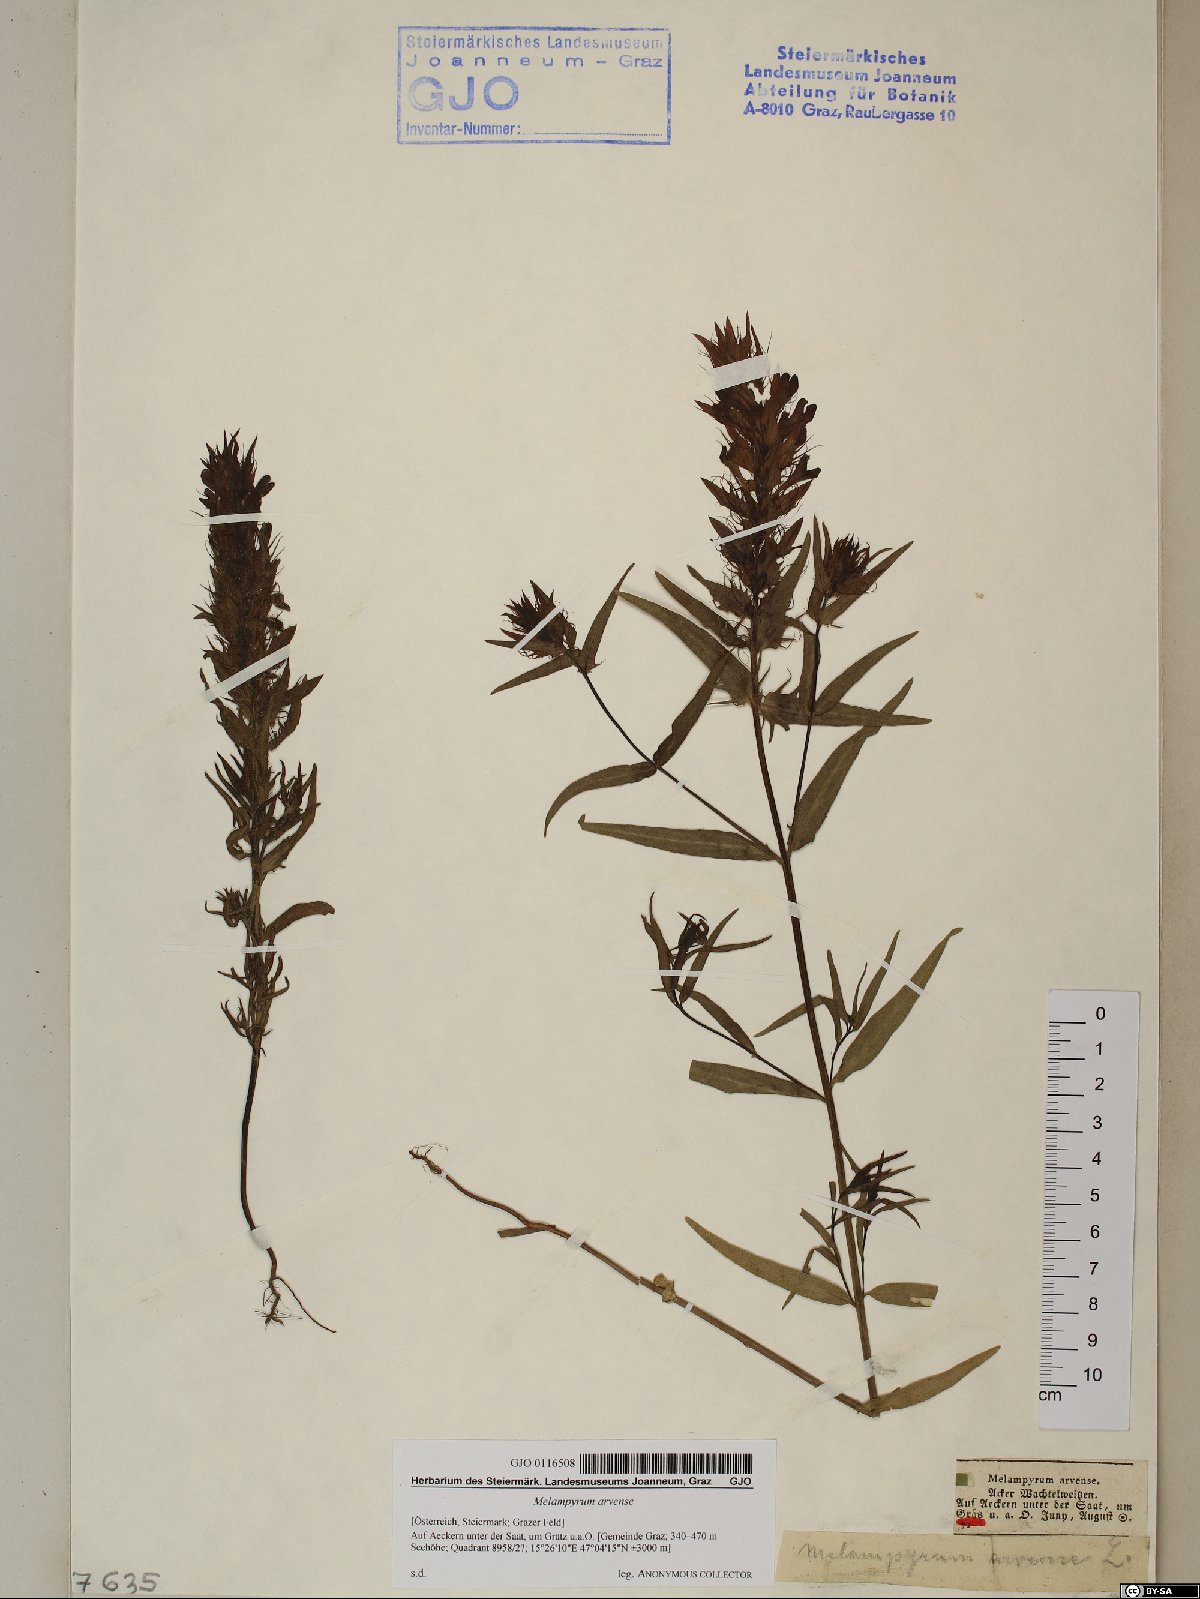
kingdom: Plantae
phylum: Tracheophyta
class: Magnoliopsida
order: Lamiales
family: Orobanchaceae
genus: Melampyrum
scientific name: Melampyrum arvense
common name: Field cow-wheat
